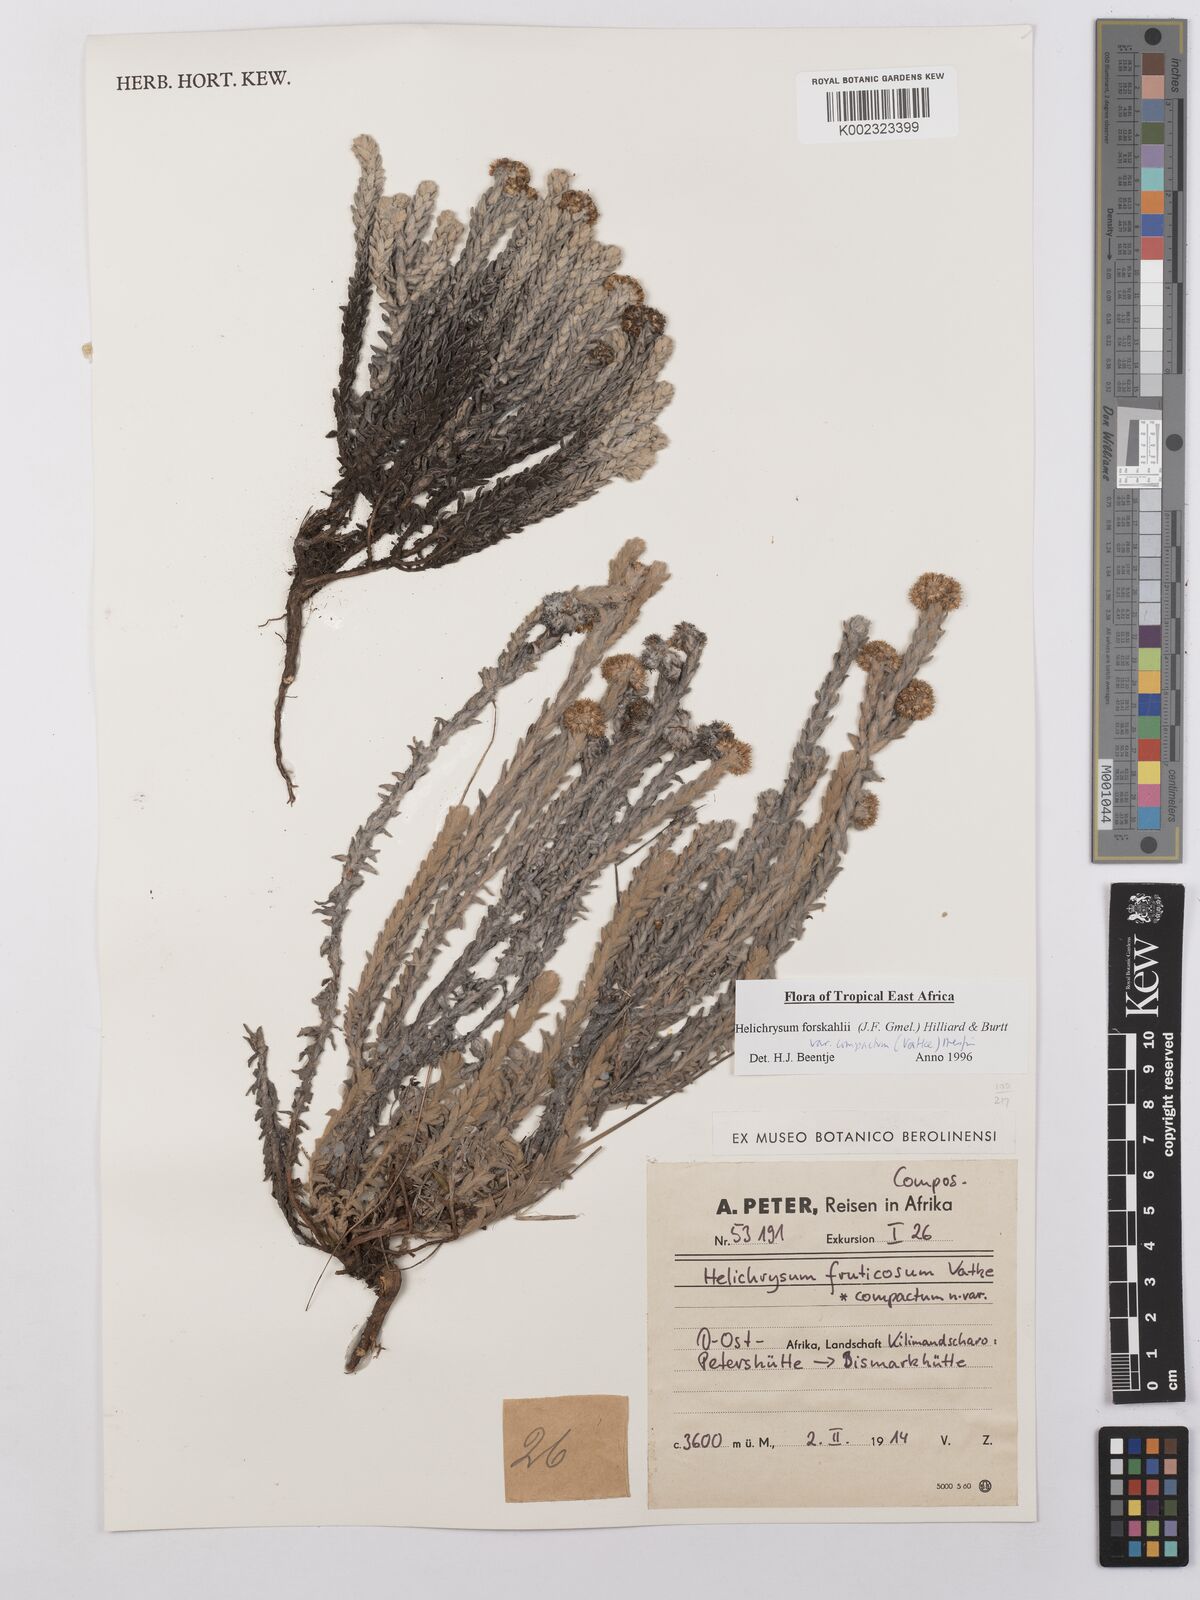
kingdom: Plantae
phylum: Tracheophyta
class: Magnoliopsida
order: Asterales
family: Asteraceae
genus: Helichrysum
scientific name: Helichrysum forskahlii
